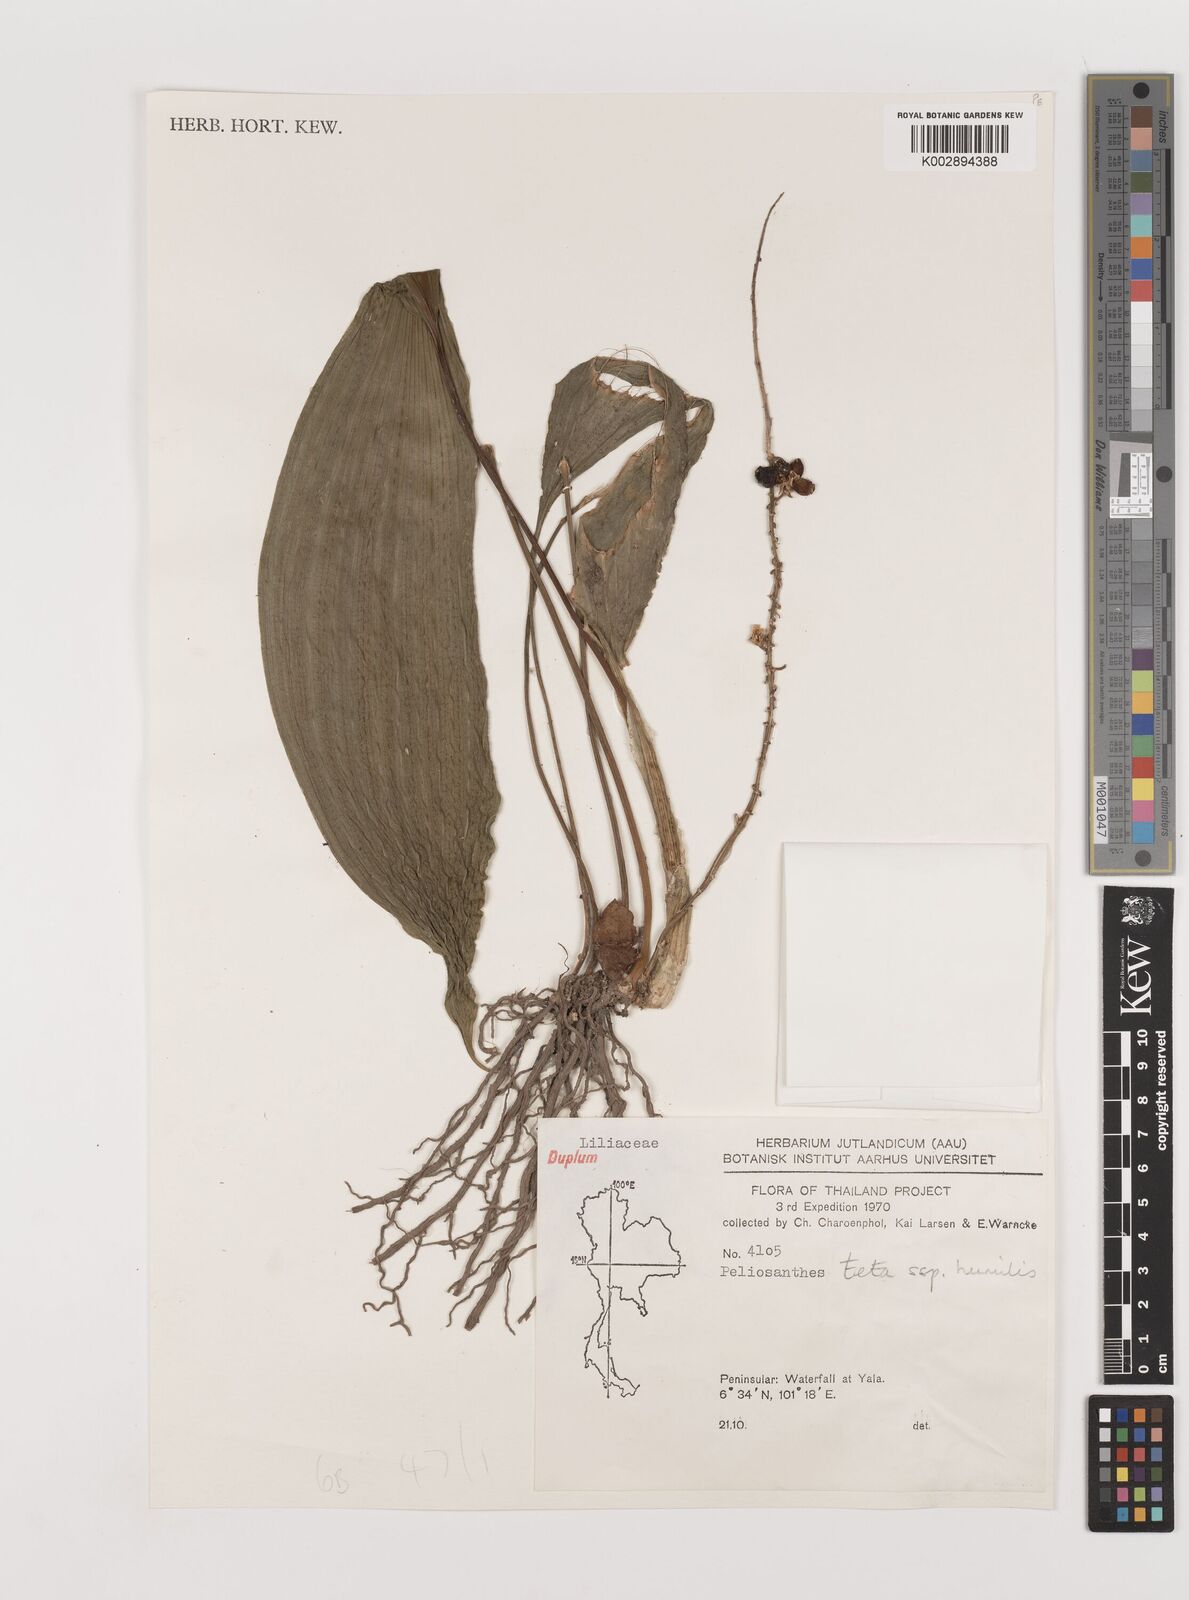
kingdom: Plantae
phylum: Tracheophyta
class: Liliopsida
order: Asparagales
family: Asparagaceae
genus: Peliosanthes
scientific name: Peliosanthes teta
